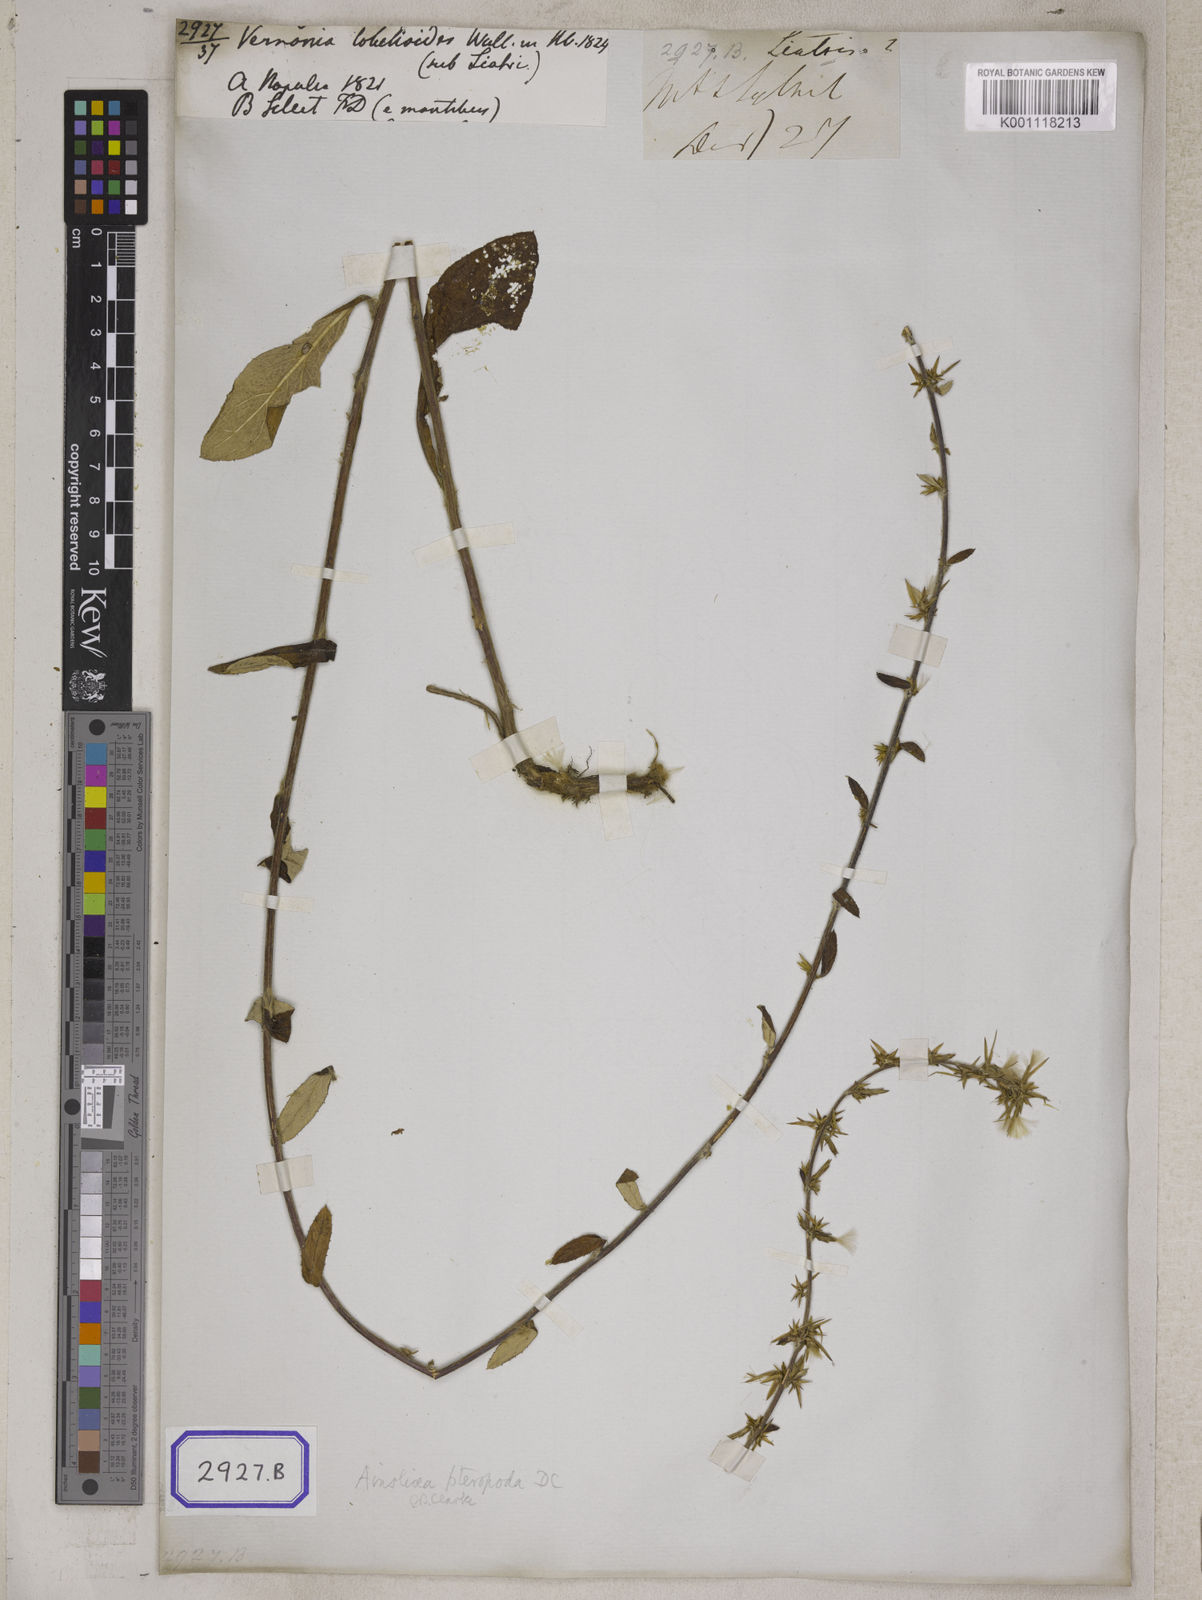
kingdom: Plantae
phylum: Tracheophyta
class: Magnoliopsida
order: Asterales
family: Asteraceae
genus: Vernonia
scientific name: Vernonia lobelioides
